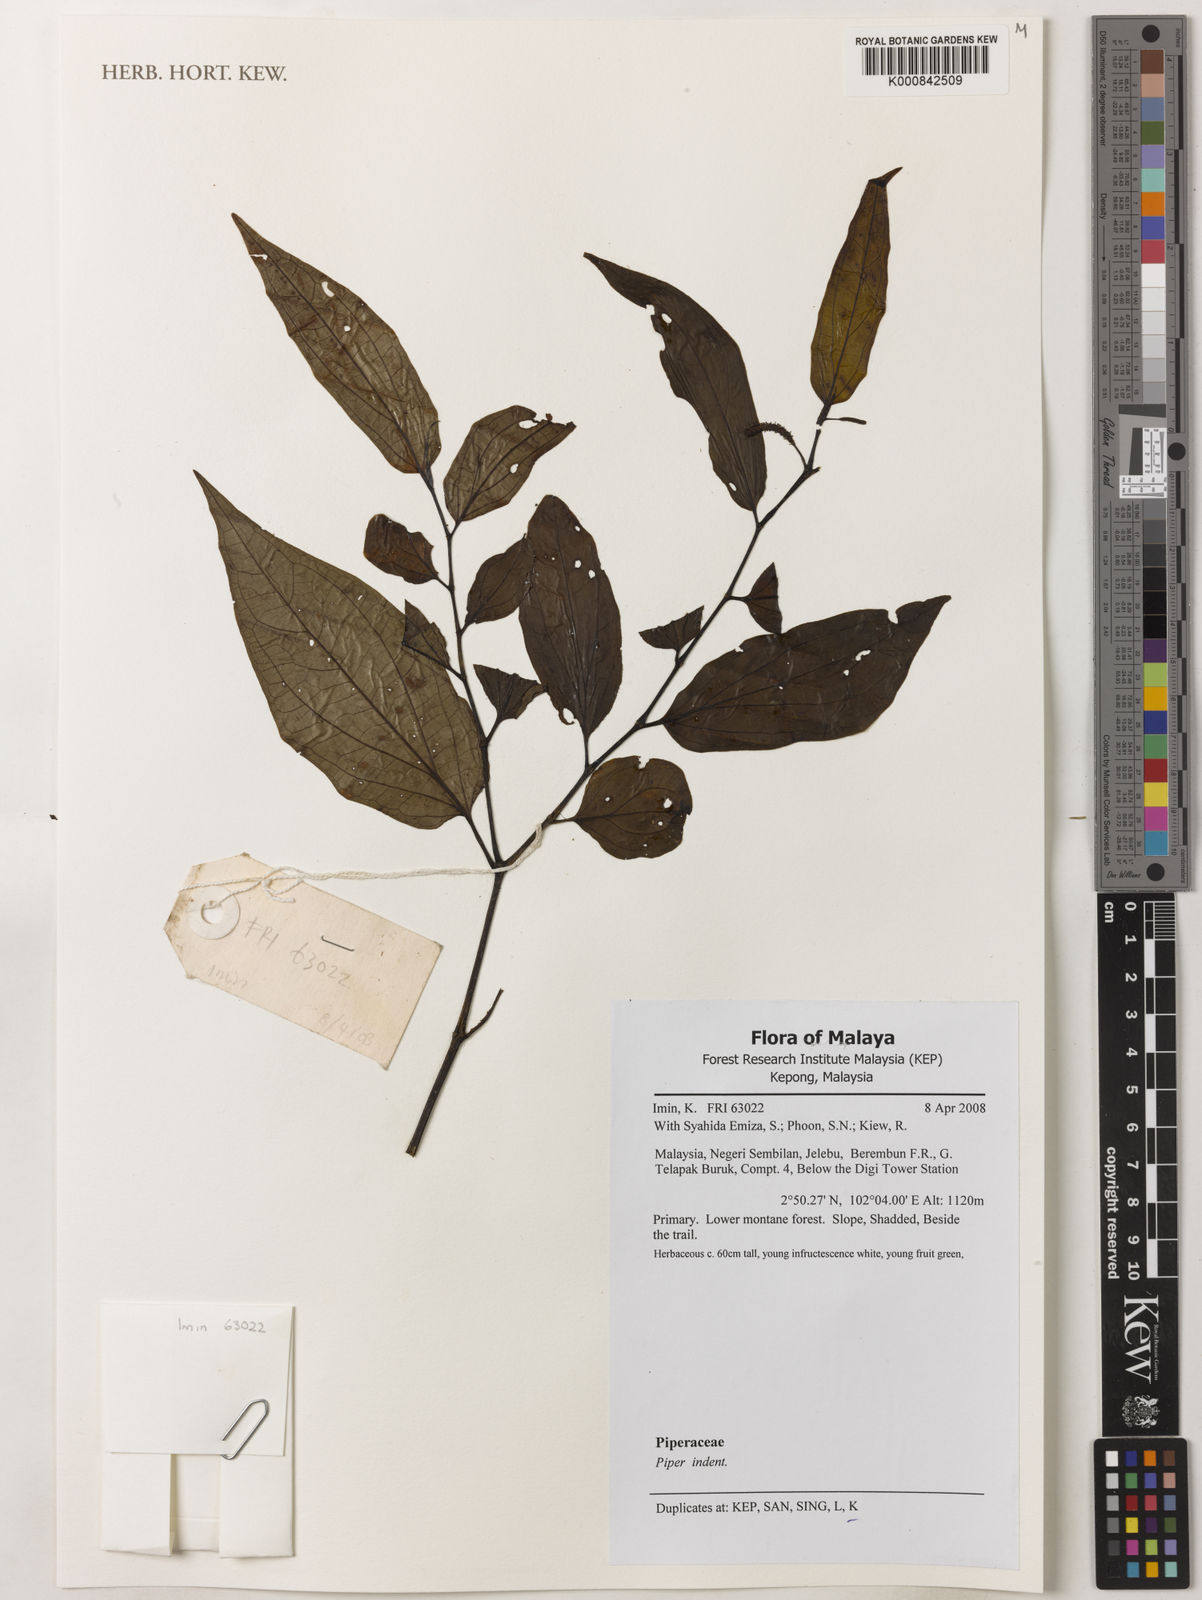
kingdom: Plantae
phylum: Tracheophyta
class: Magnoliopsida
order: Piperales
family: Piperaceae
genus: Piper
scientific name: Piper
